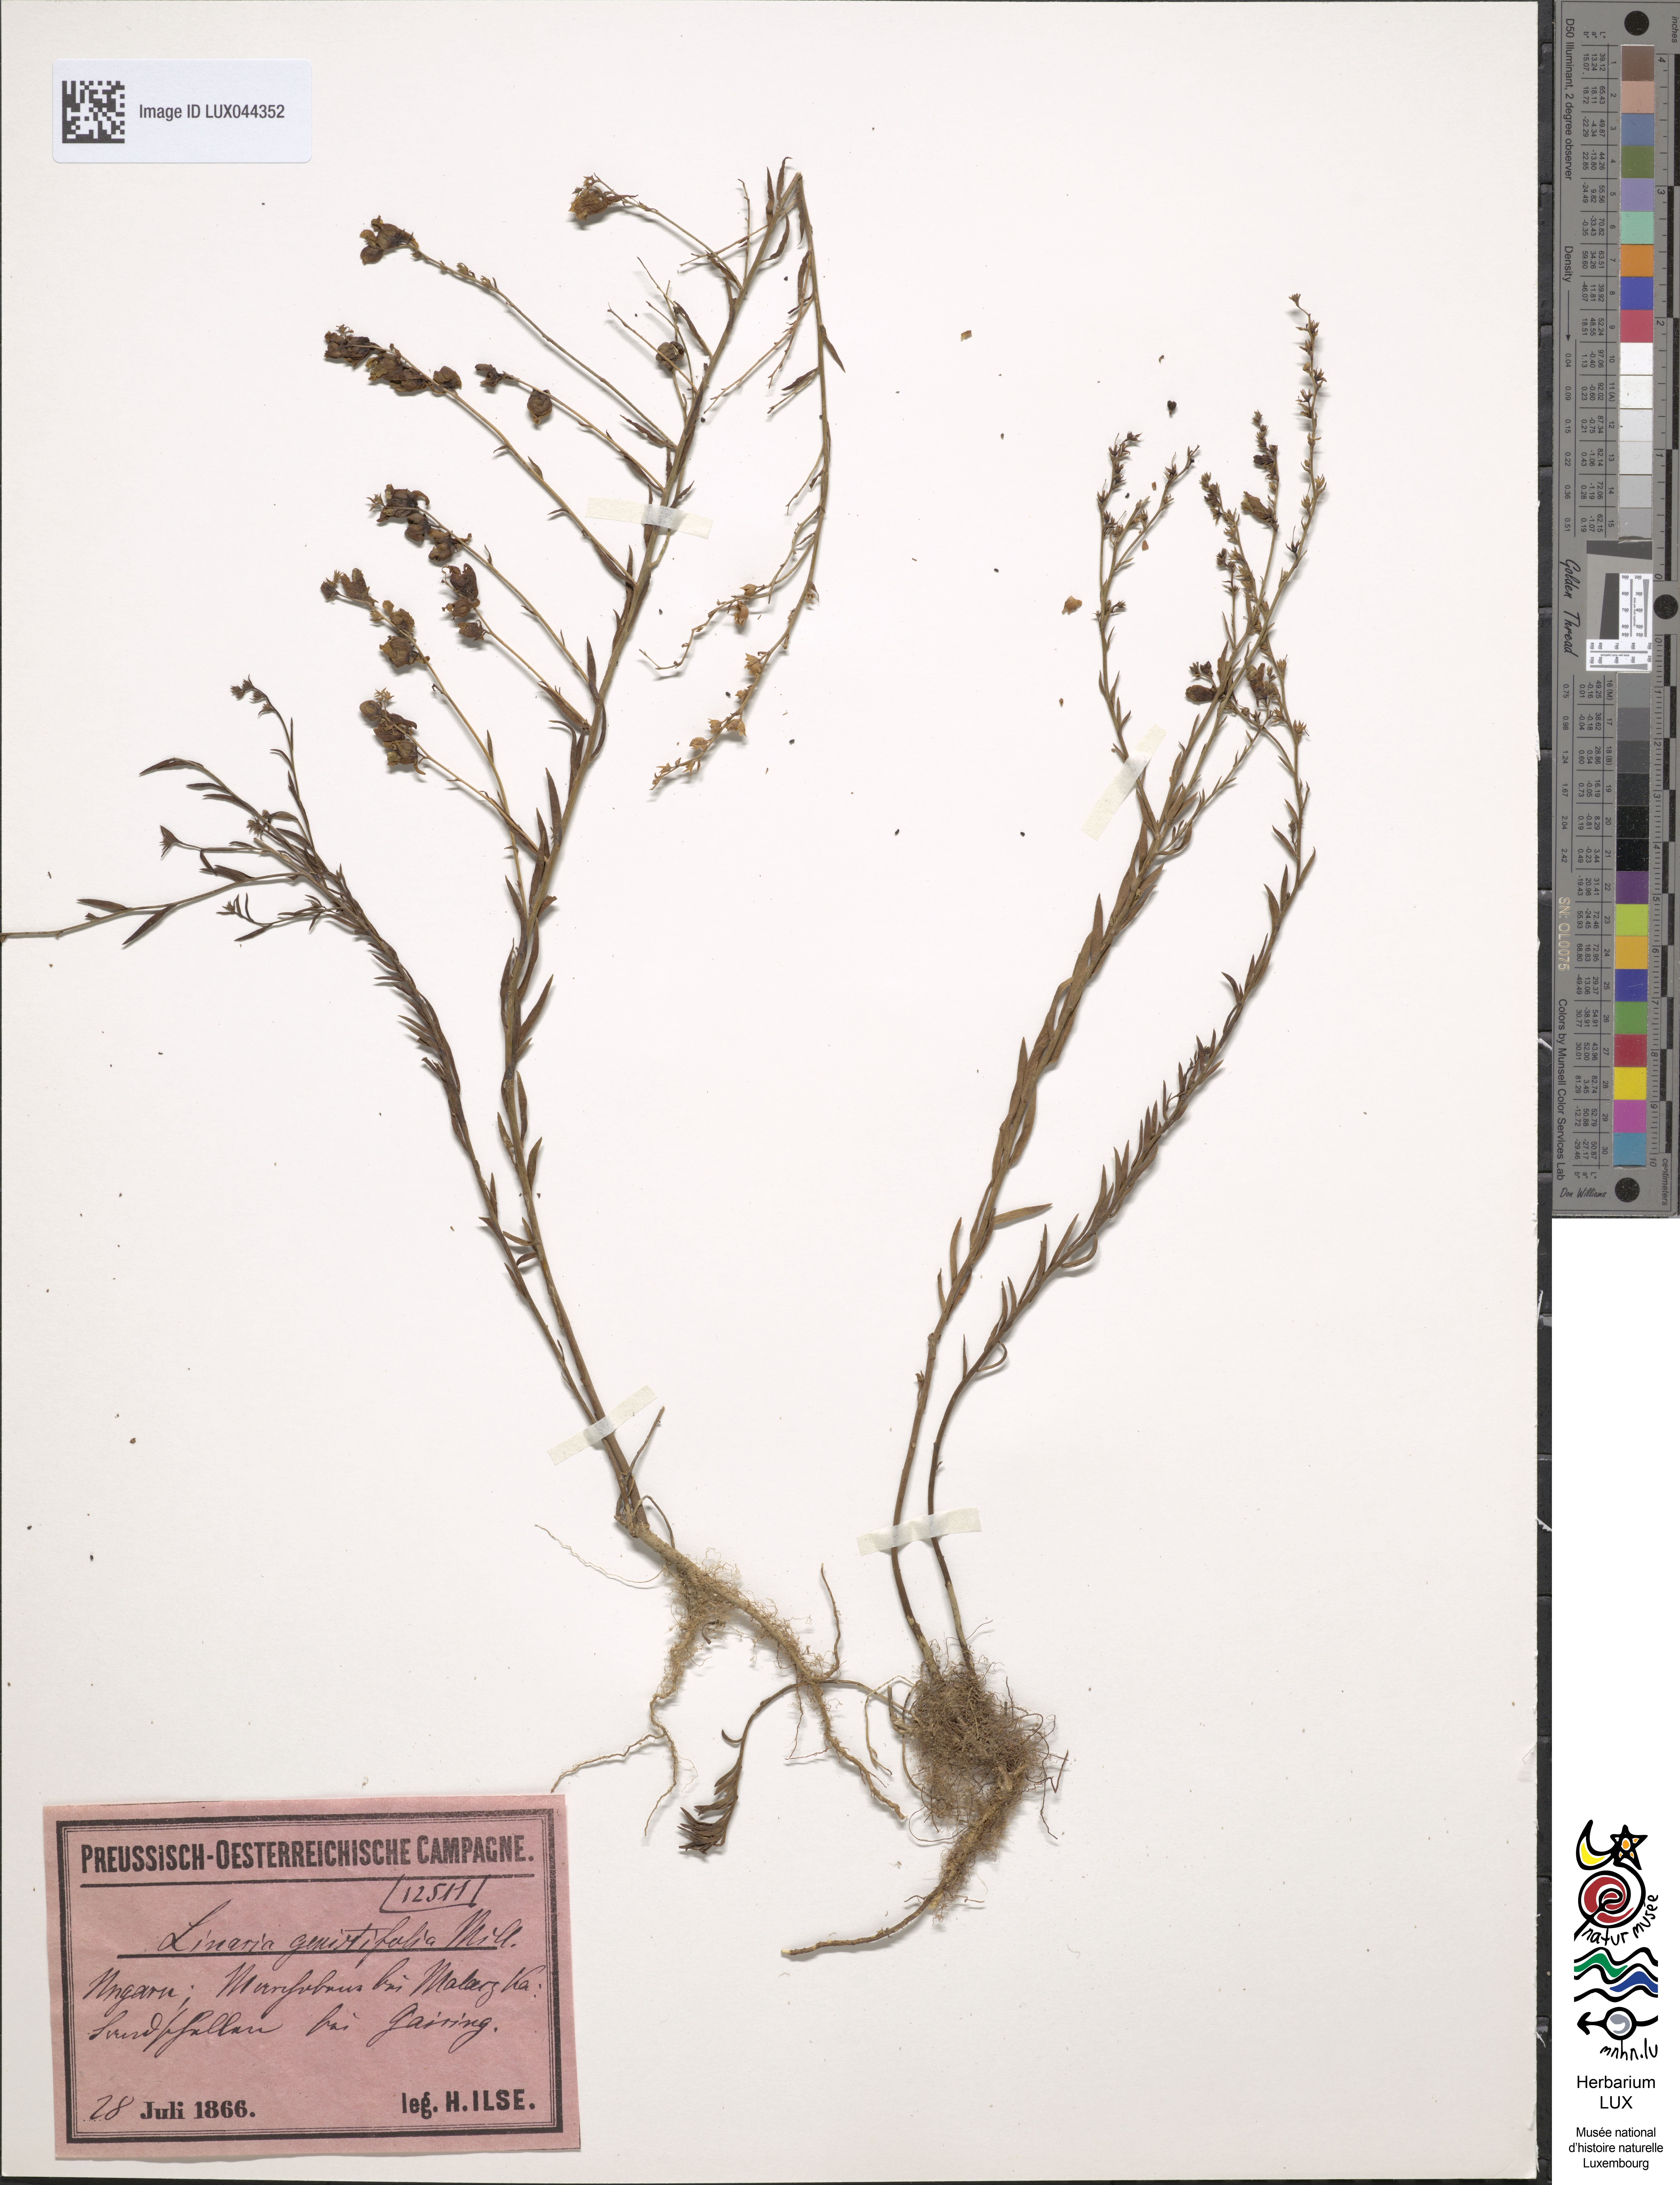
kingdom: Plantae
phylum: Tracheophyta
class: Magnoliopsida
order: Lamiales
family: Plantaginaceae
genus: Linaria
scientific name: Linaria genistifolia
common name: Broomleaf toadflax
